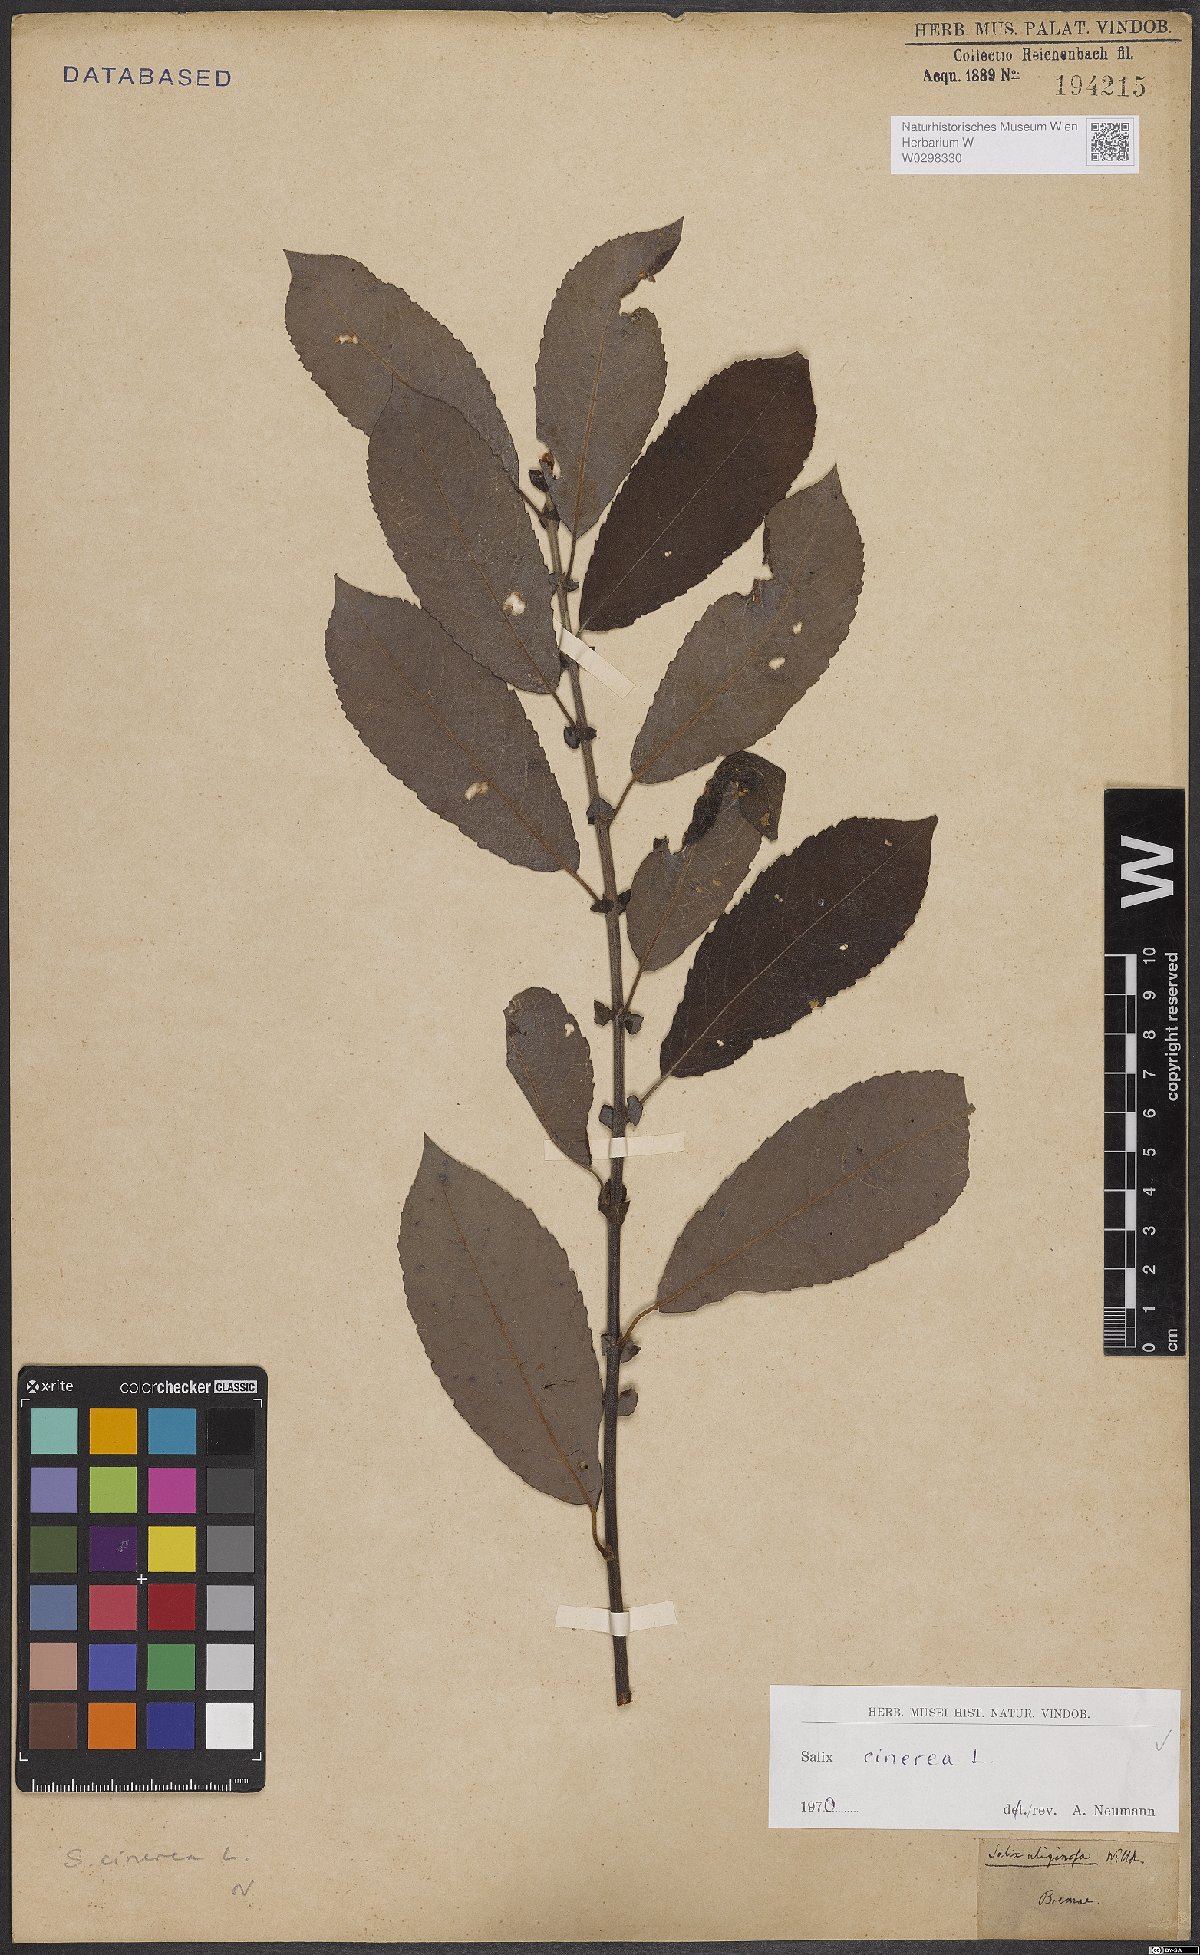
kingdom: Plantae
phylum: Tracheophyta
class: Magnoliopsida
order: Malpighiales
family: Salicaceae
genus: Salix
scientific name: Salix cinerea
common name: Common sallow
